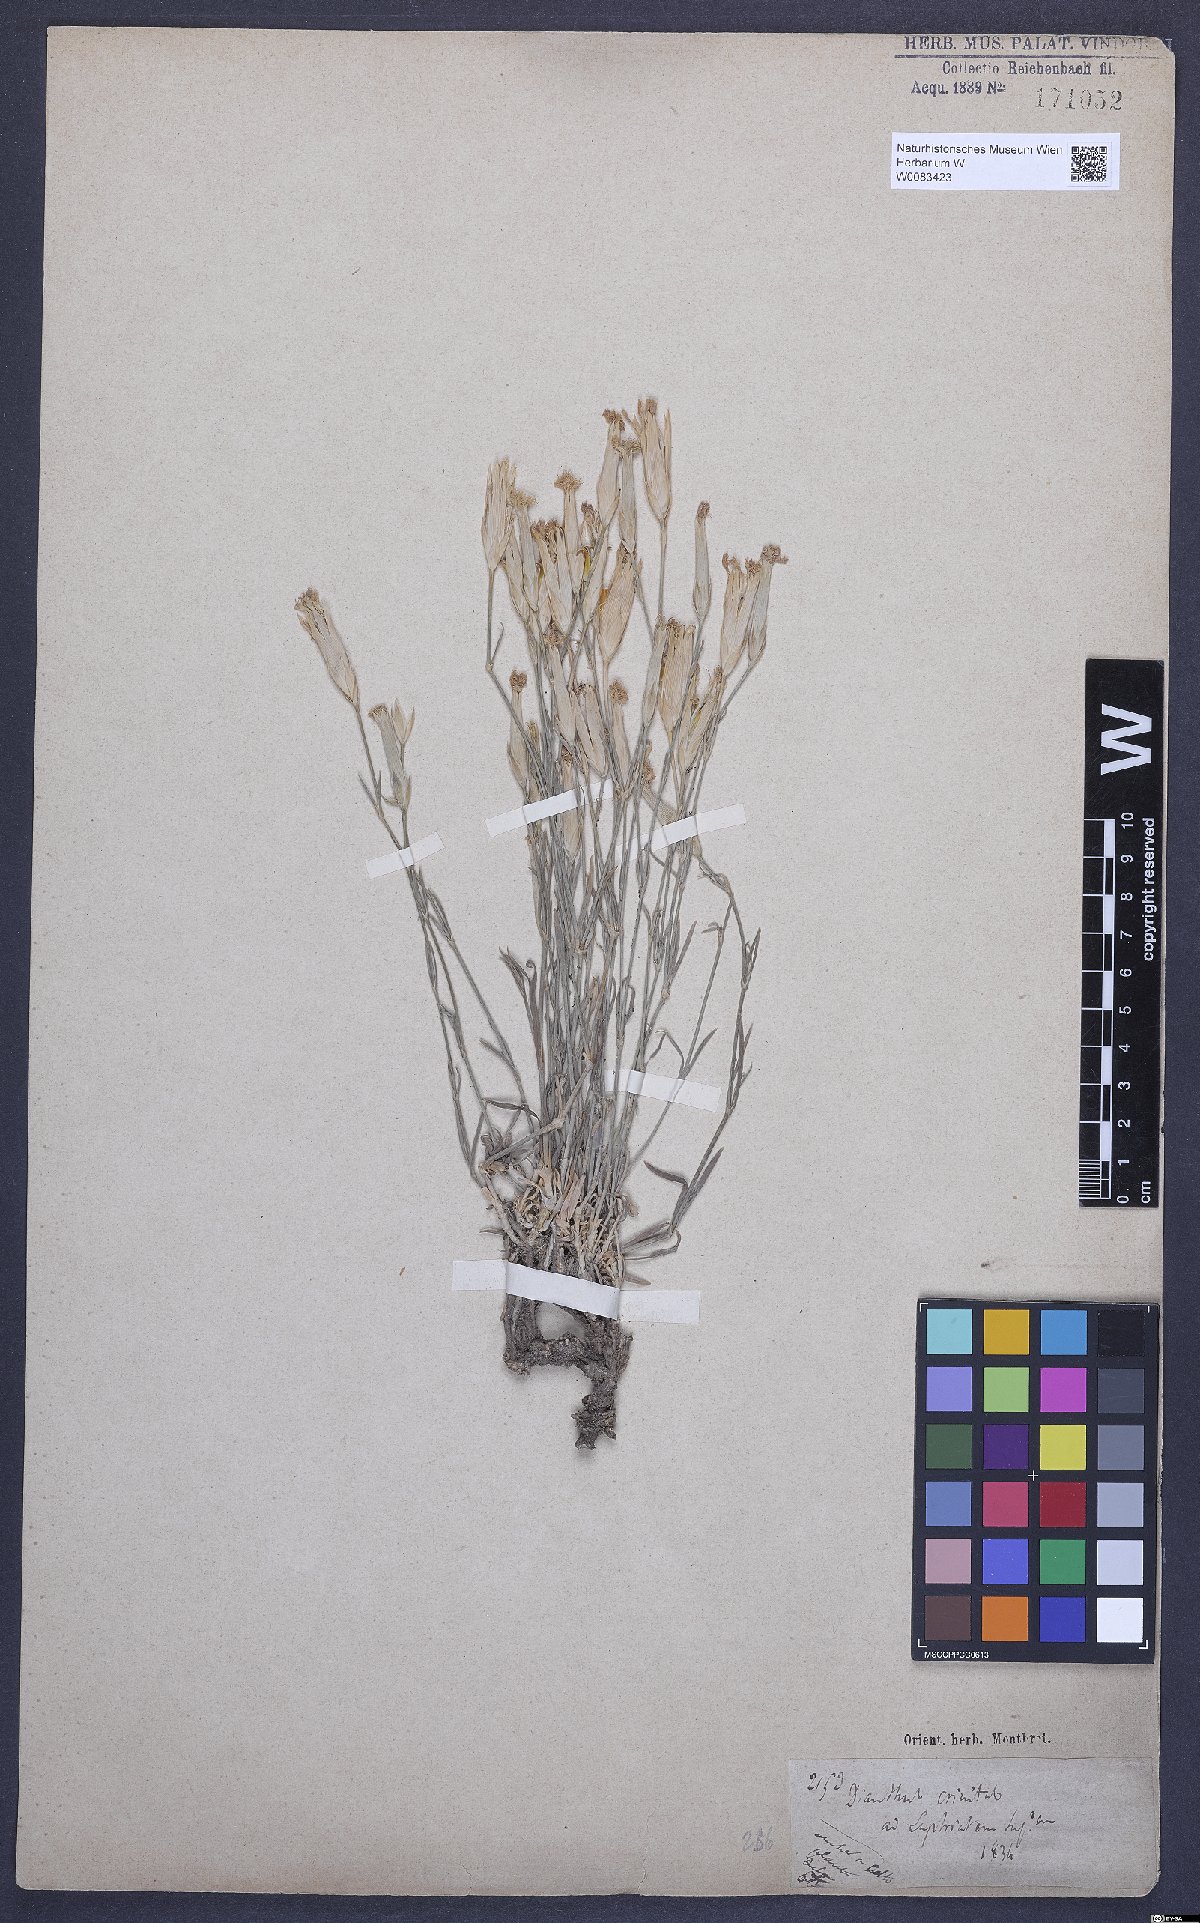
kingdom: Plantae
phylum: Tracheophyta
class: Magnoliopsida
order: Caryophyllales
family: Caryophyllaceae
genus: Dianthus
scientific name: Dianthus crinitus
